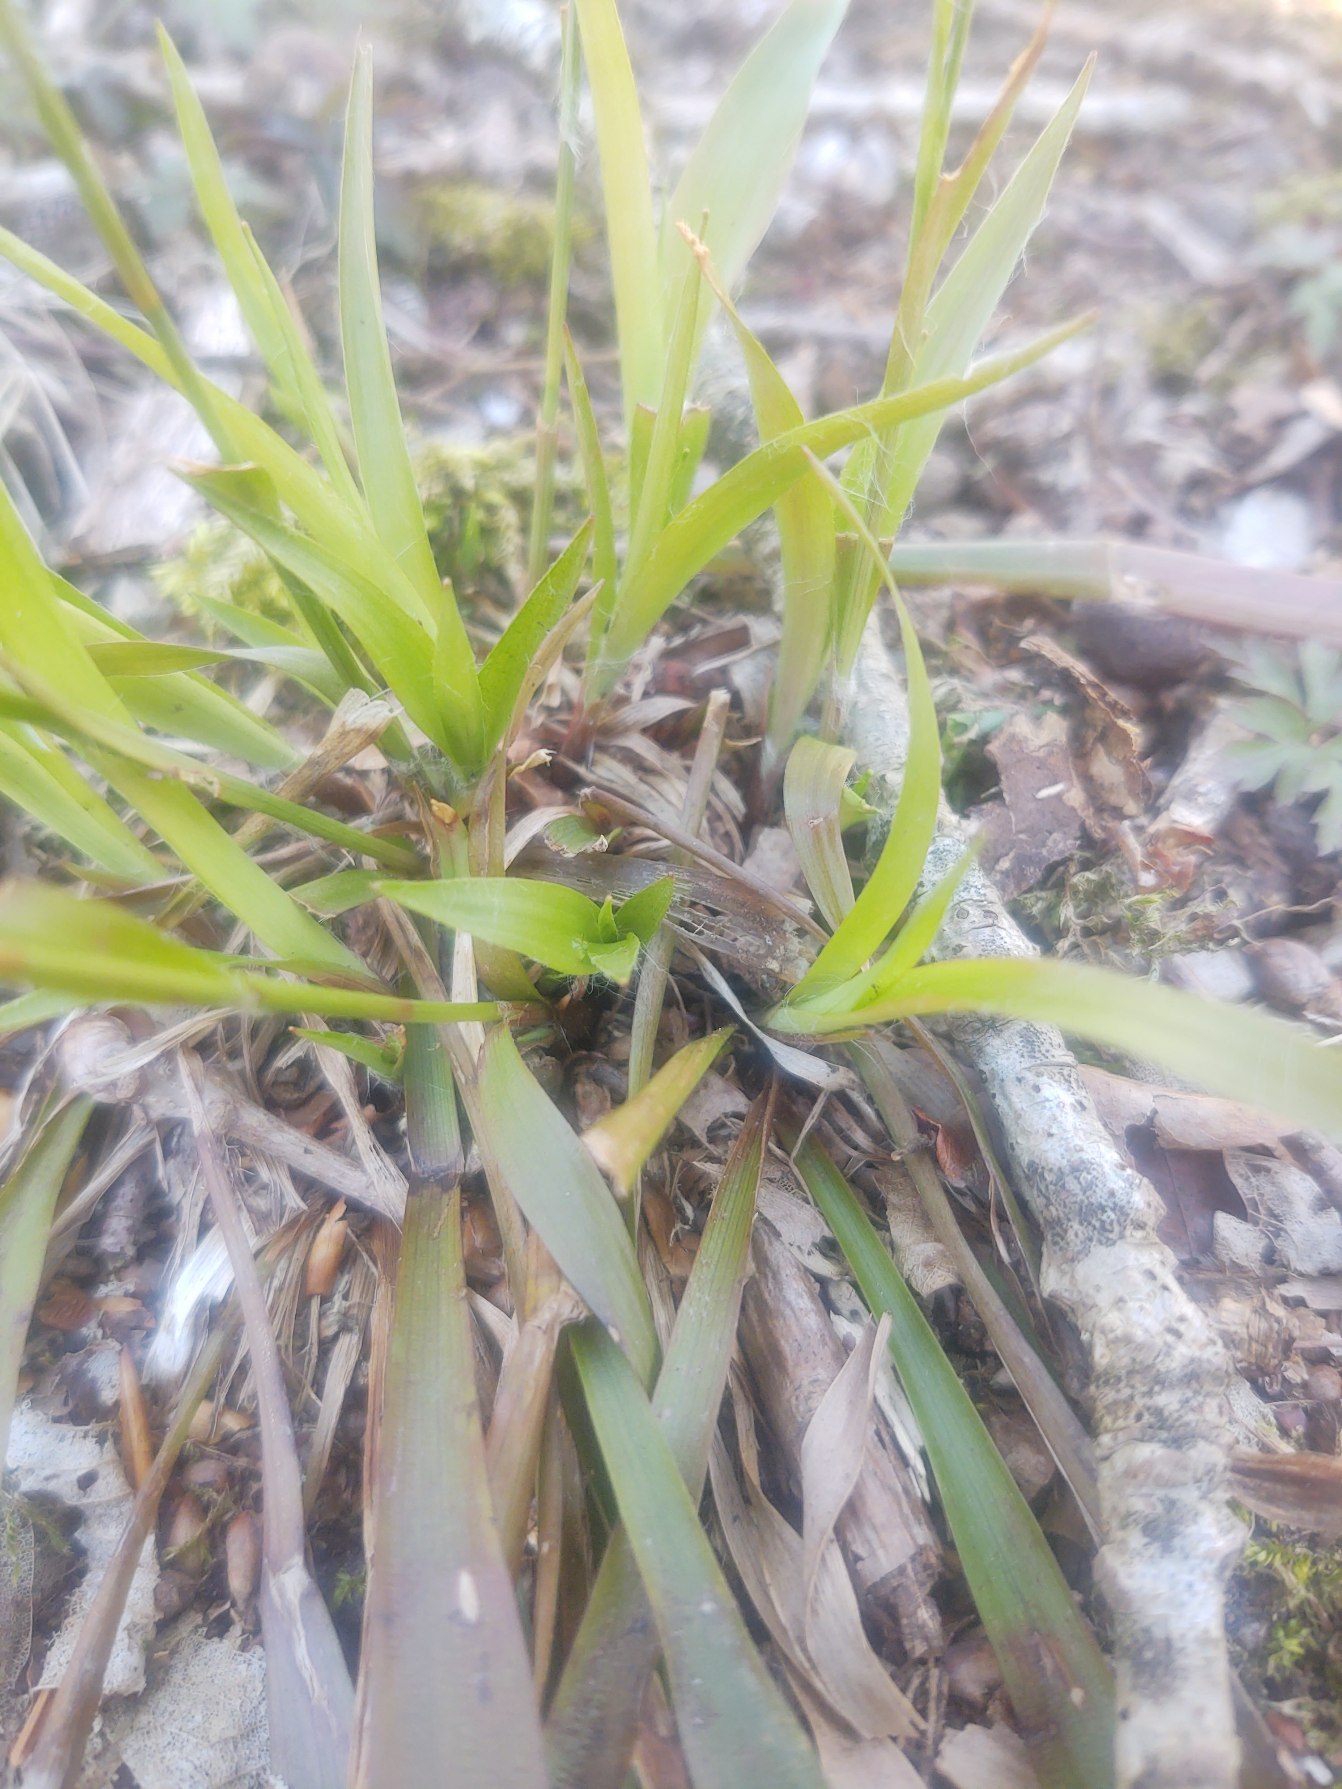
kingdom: Plantae
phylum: Tracheophyta
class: Liliopsida
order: Poales
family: Juncaceae
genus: Luzula
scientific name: Luzula pilosa
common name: Håret frytle
